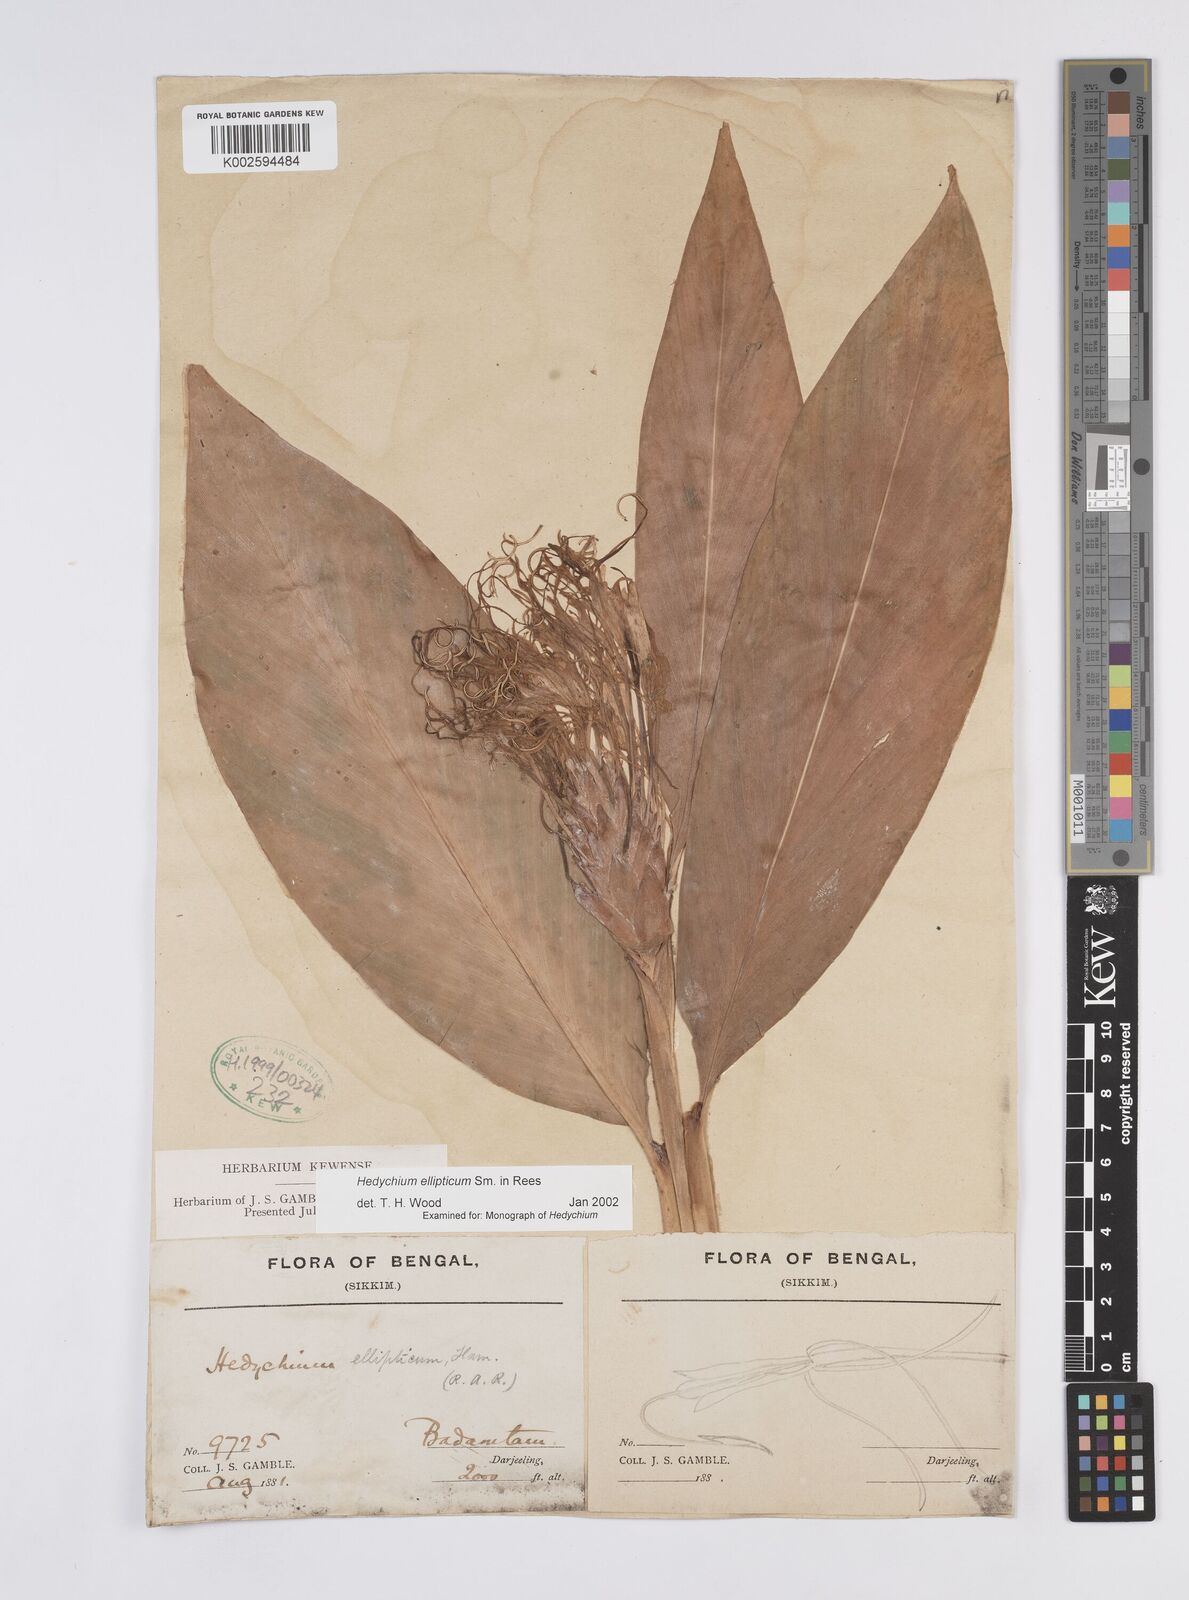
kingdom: Plantae
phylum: Tracheophyta
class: Liliopsida
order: Zingiberales
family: Zingiberaceae
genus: Hedychium
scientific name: Hedychium ellipticum
